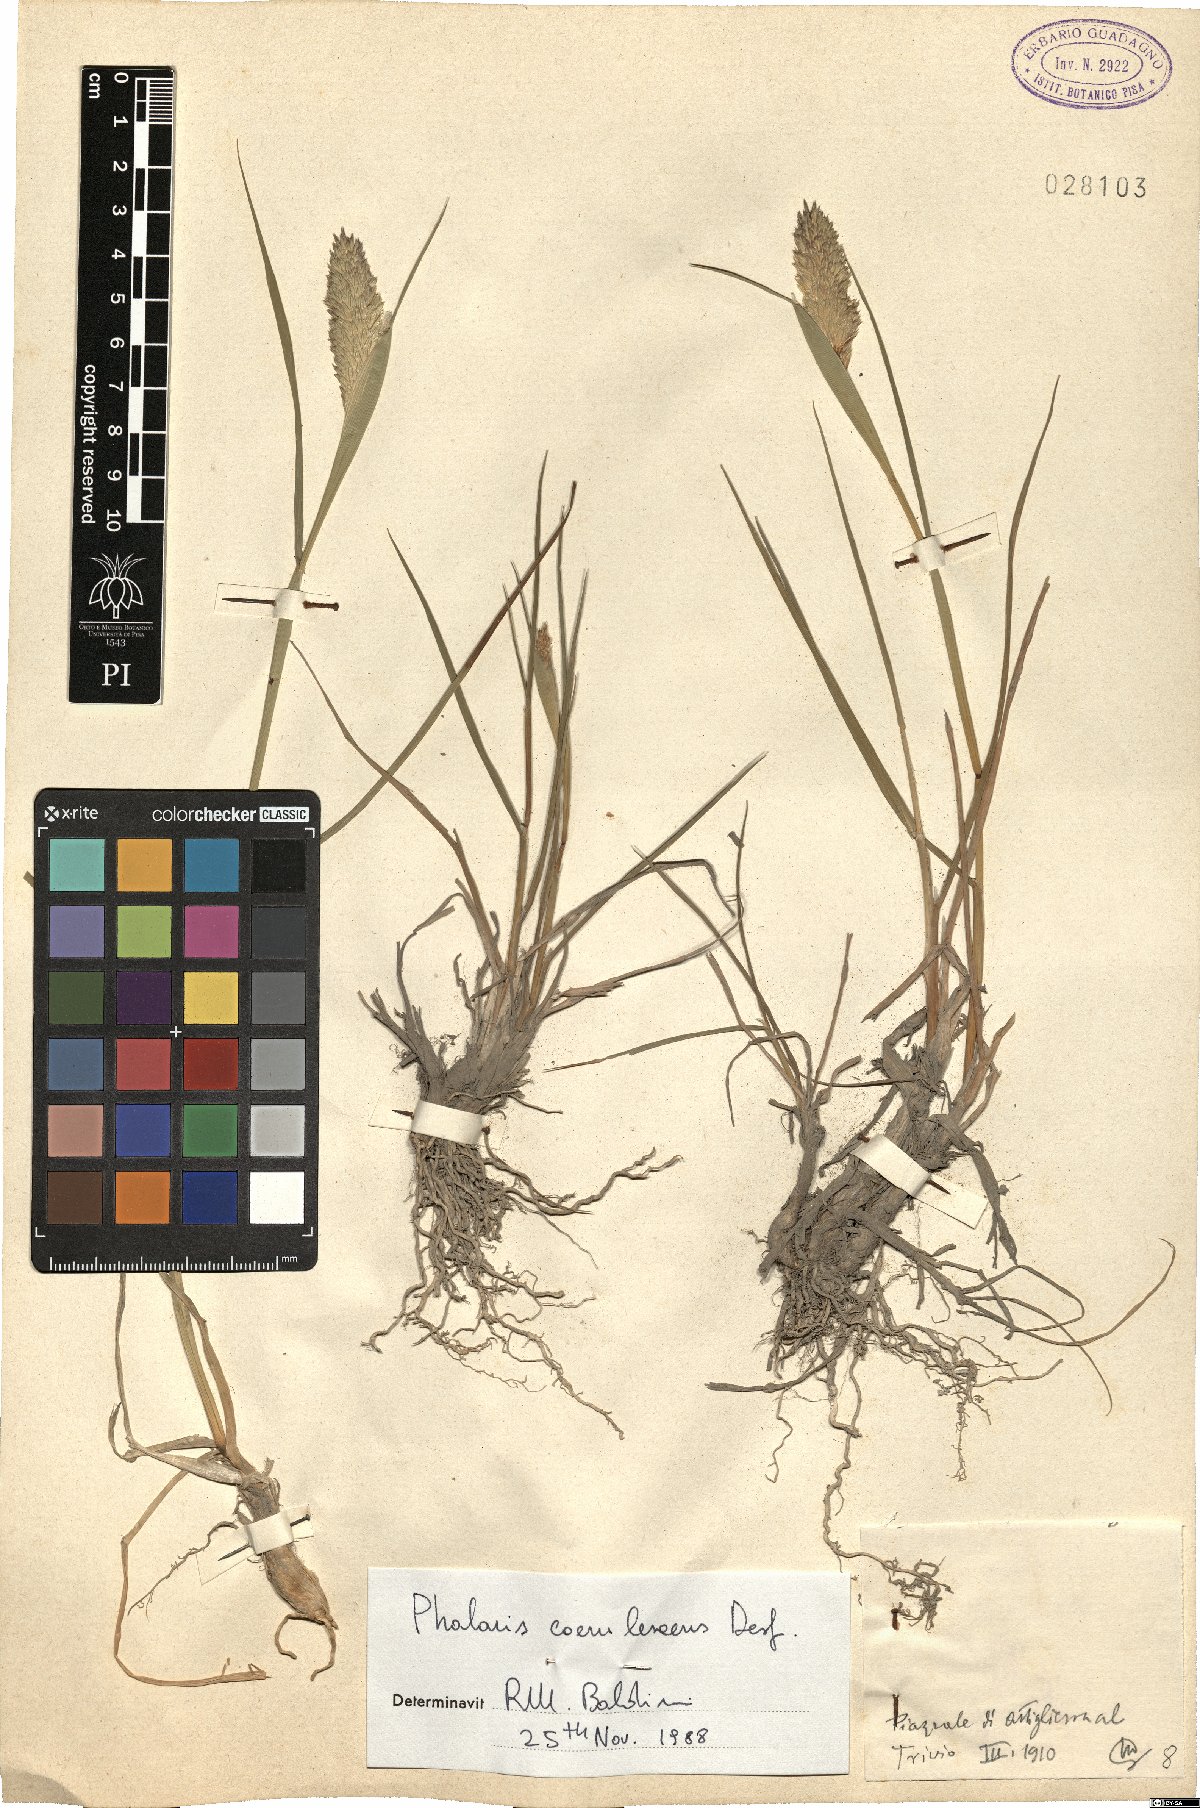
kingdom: Plantae
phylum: Tracheophyta
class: Liliopsida
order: Poales
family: Poaceae
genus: Phalaris
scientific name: Phalaris coerulescens
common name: Sunolgrass
